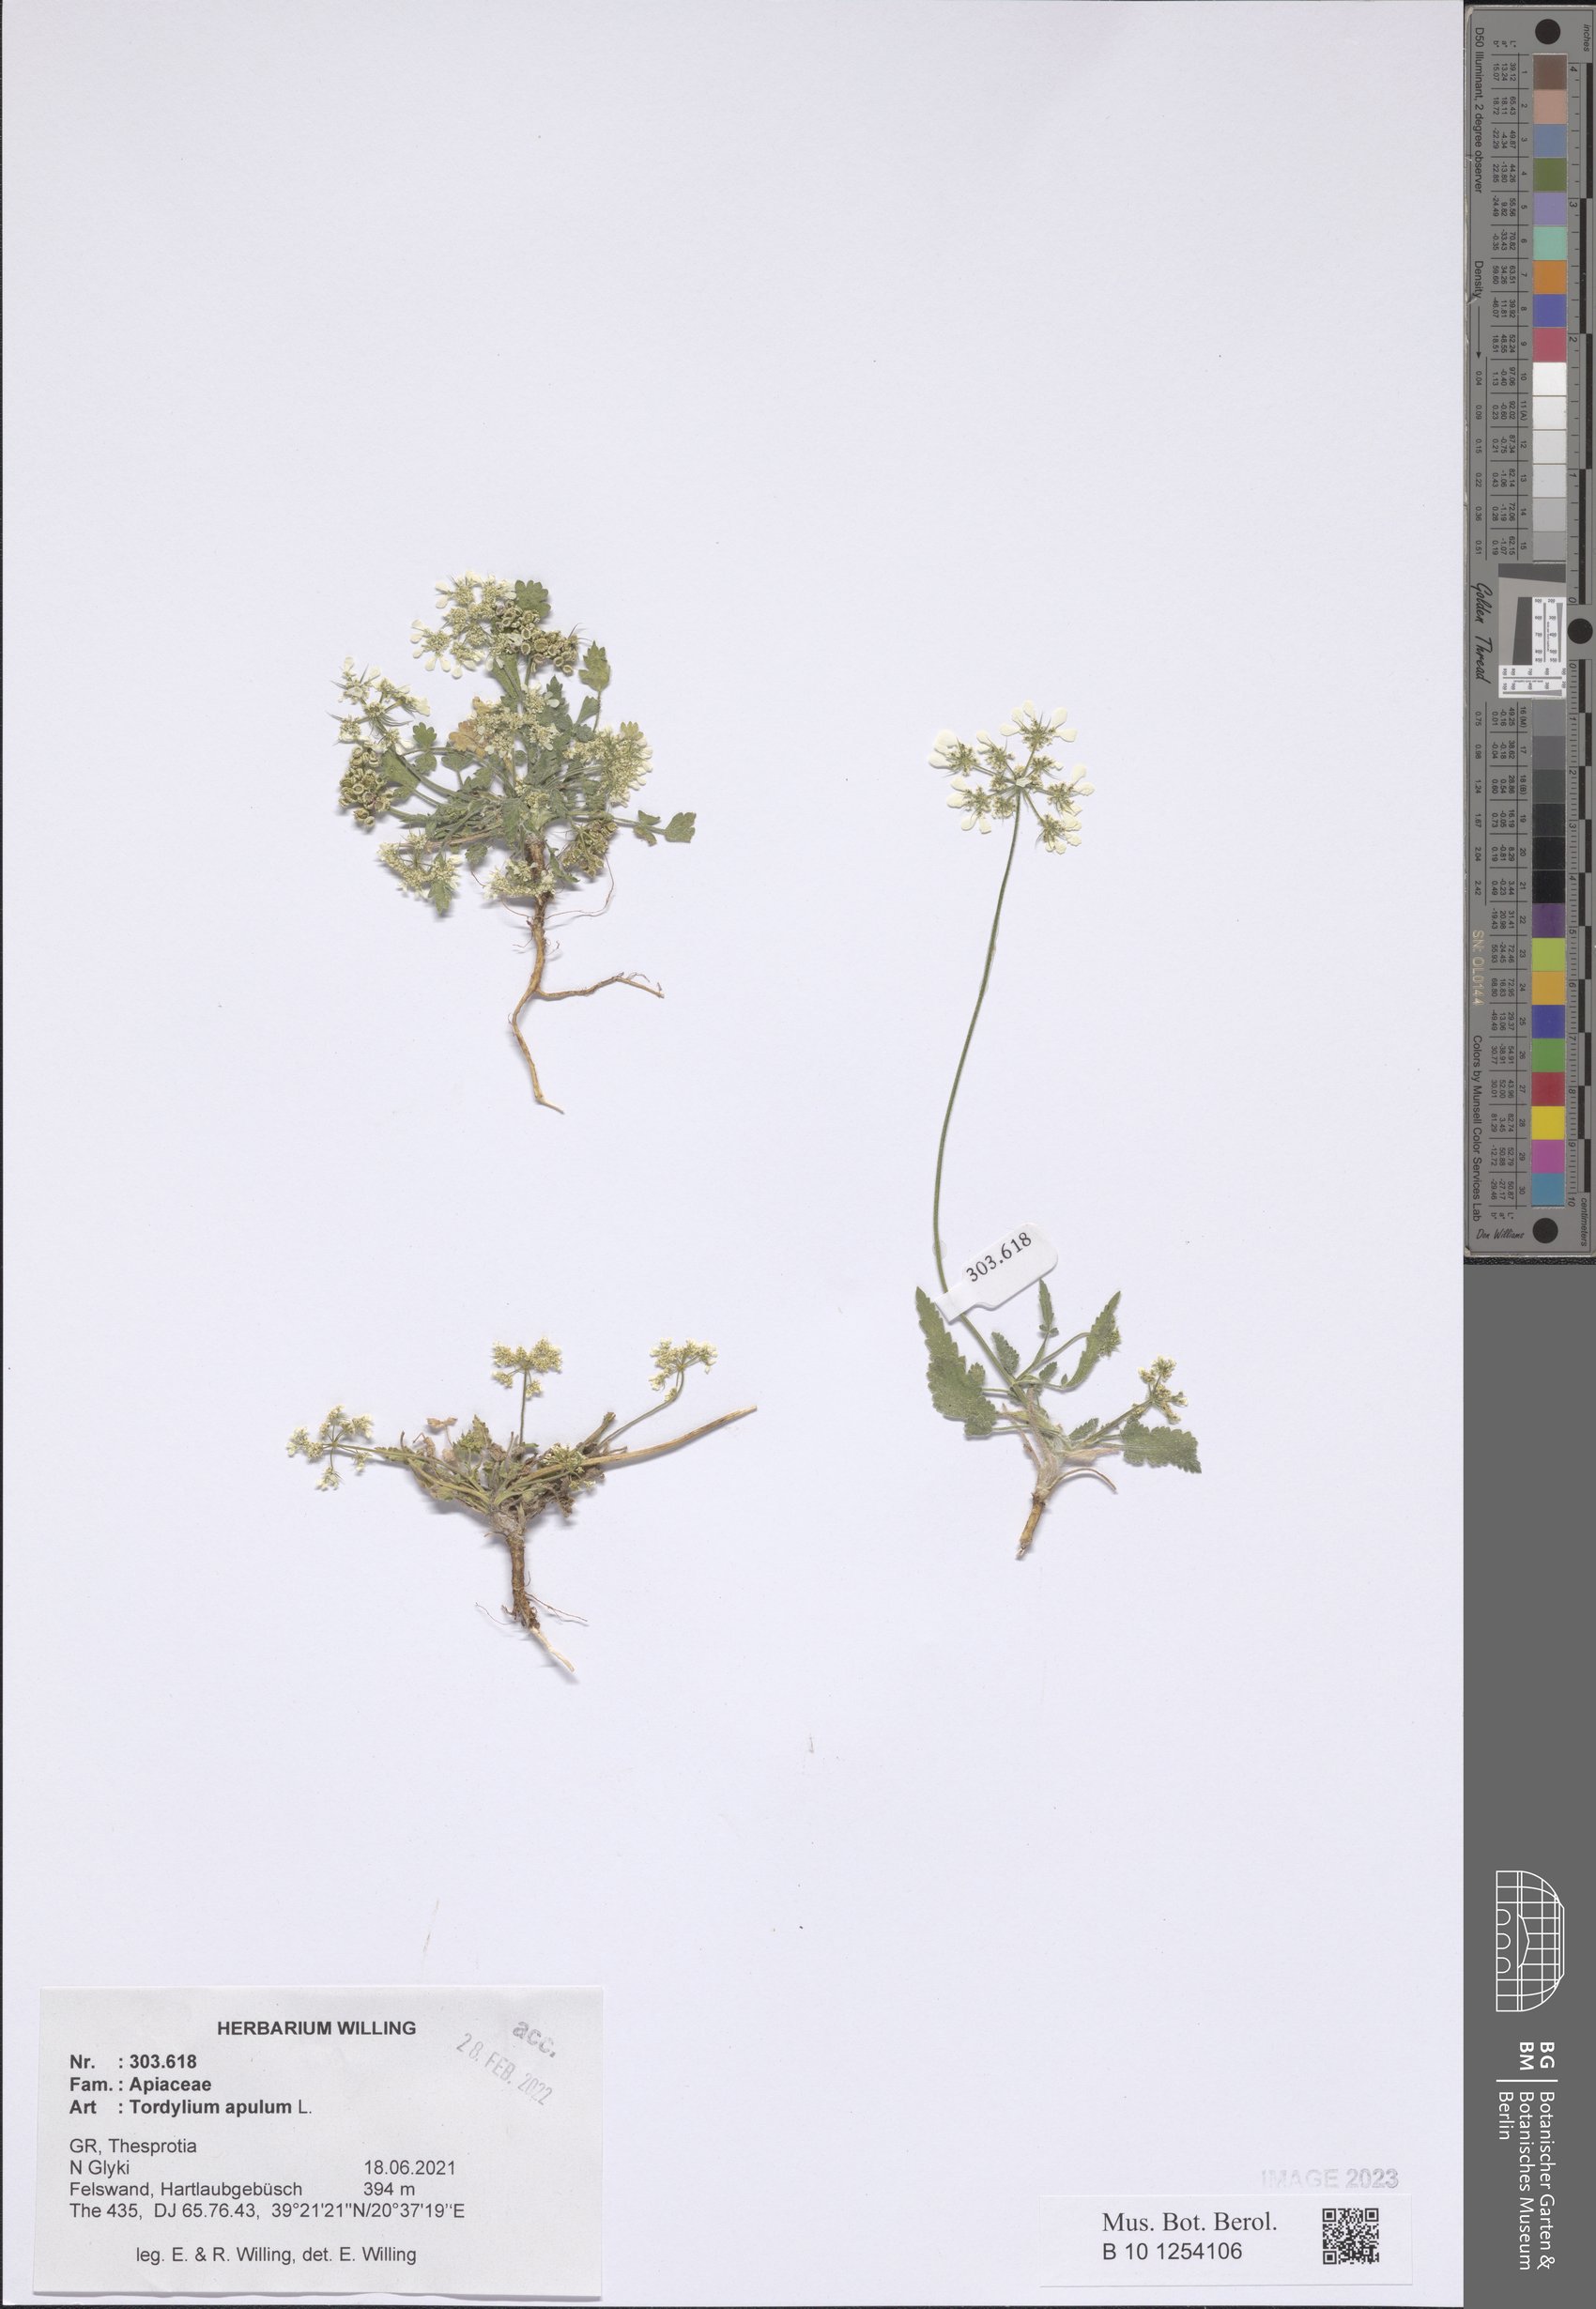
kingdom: Plantae
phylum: Tracheophyta
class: Magnoliopsida
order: Apiales
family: Apiaceae
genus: Tordylium
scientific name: Tordylium apulum
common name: Mediterranean hartwort
